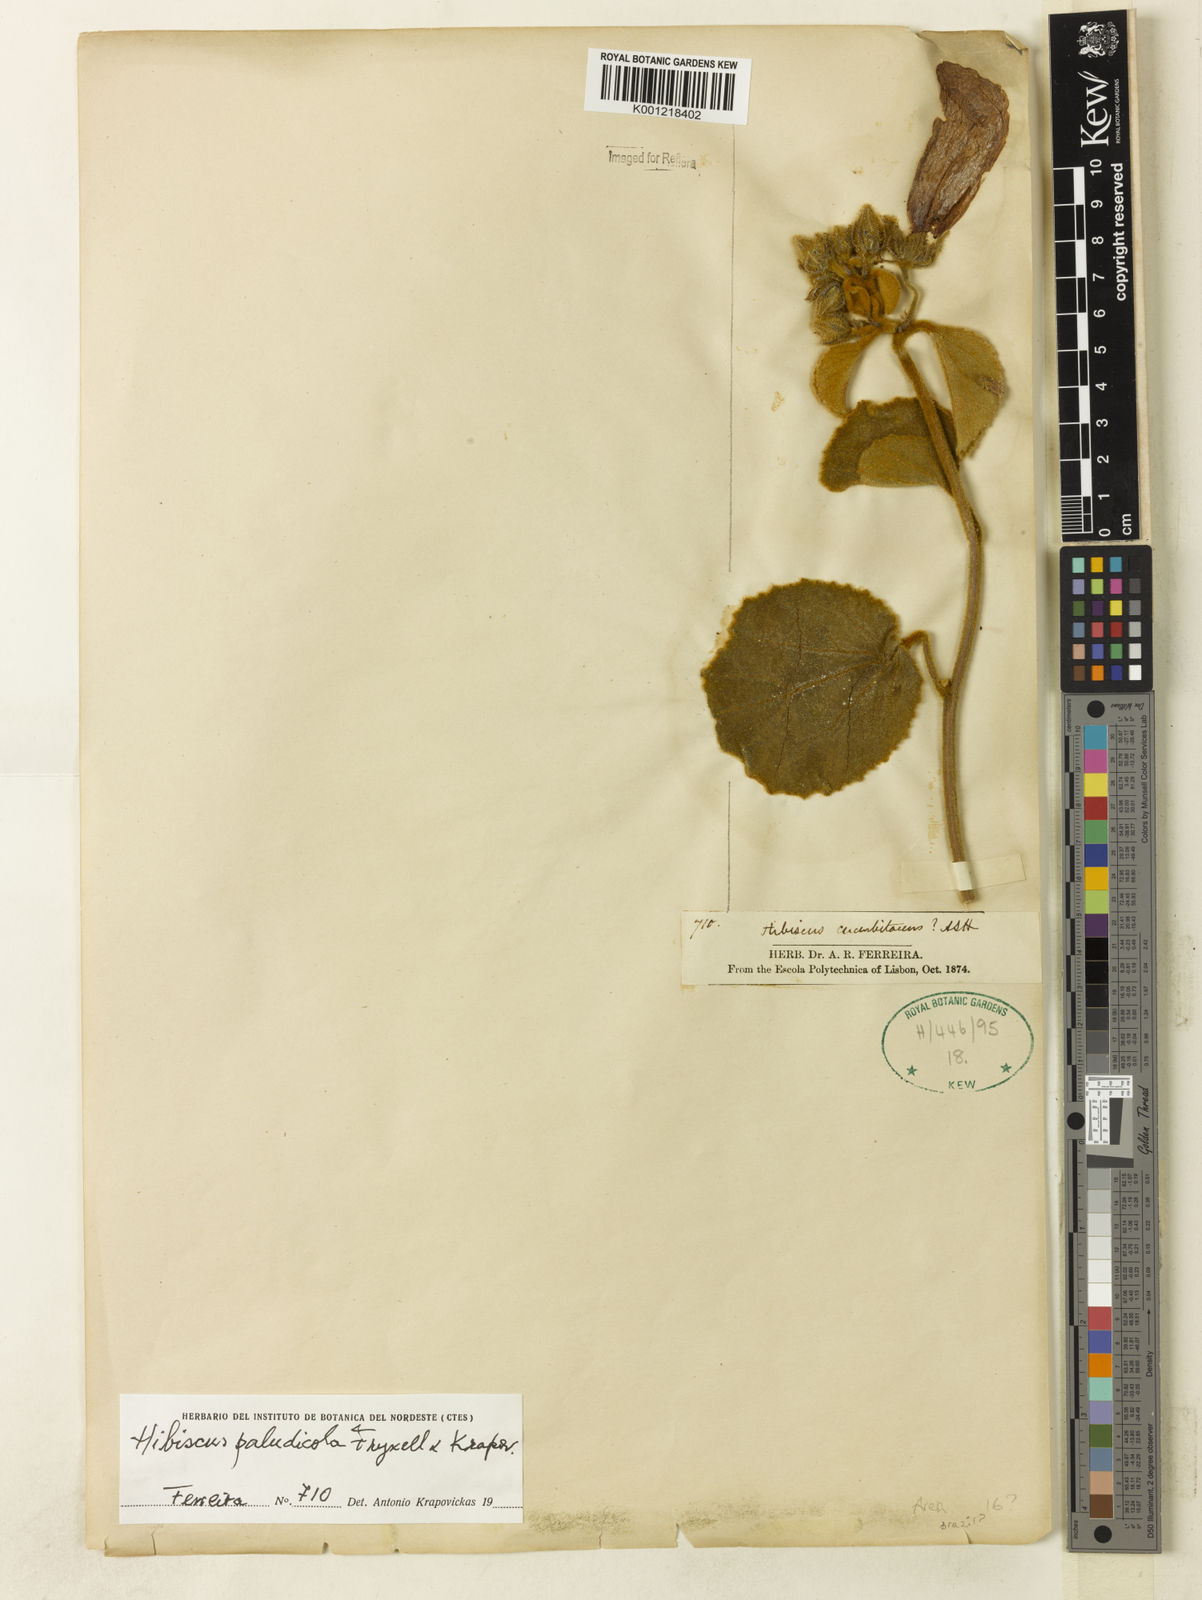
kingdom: Plantae
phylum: Tracheophyta
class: Magnoliopsida
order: Malvales
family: Malvaceae
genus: Hibiscus
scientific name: Hibiscus paludicola
